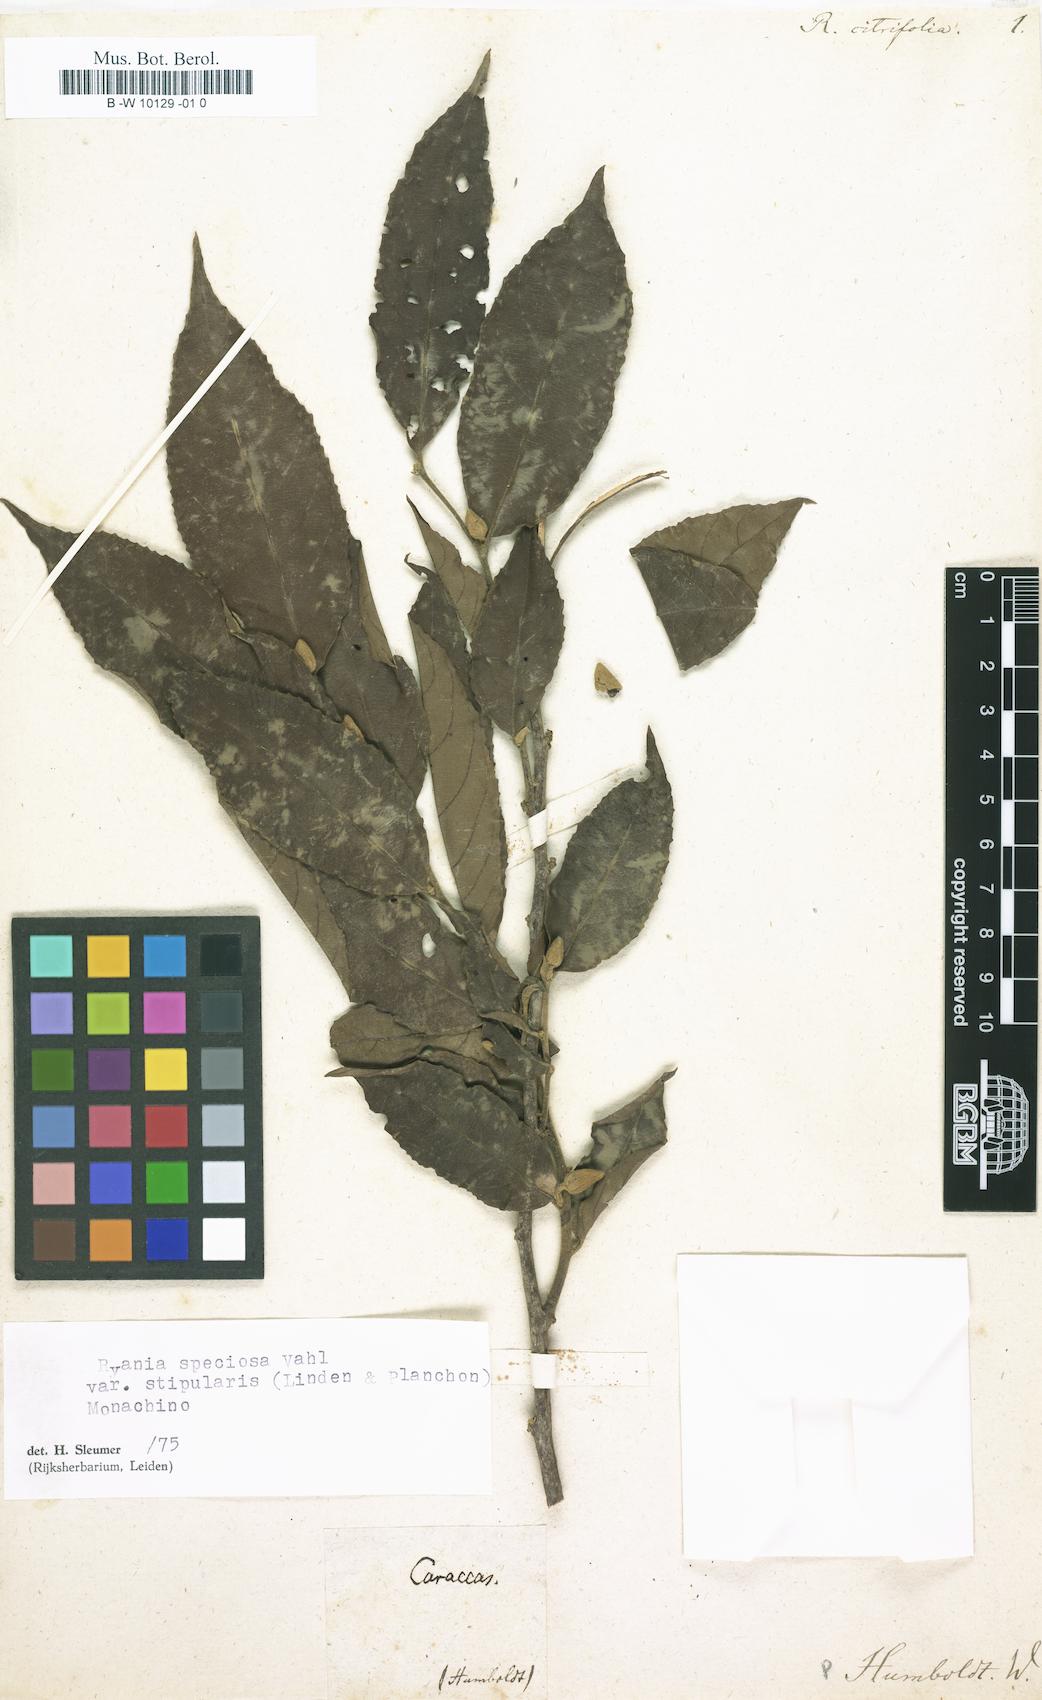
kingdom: Plantae
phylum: Tracheophyta
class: Magnoliopsida
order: Malpighiales
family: Salicaceae
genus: Ryania
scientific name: Ryania cirtifolia
